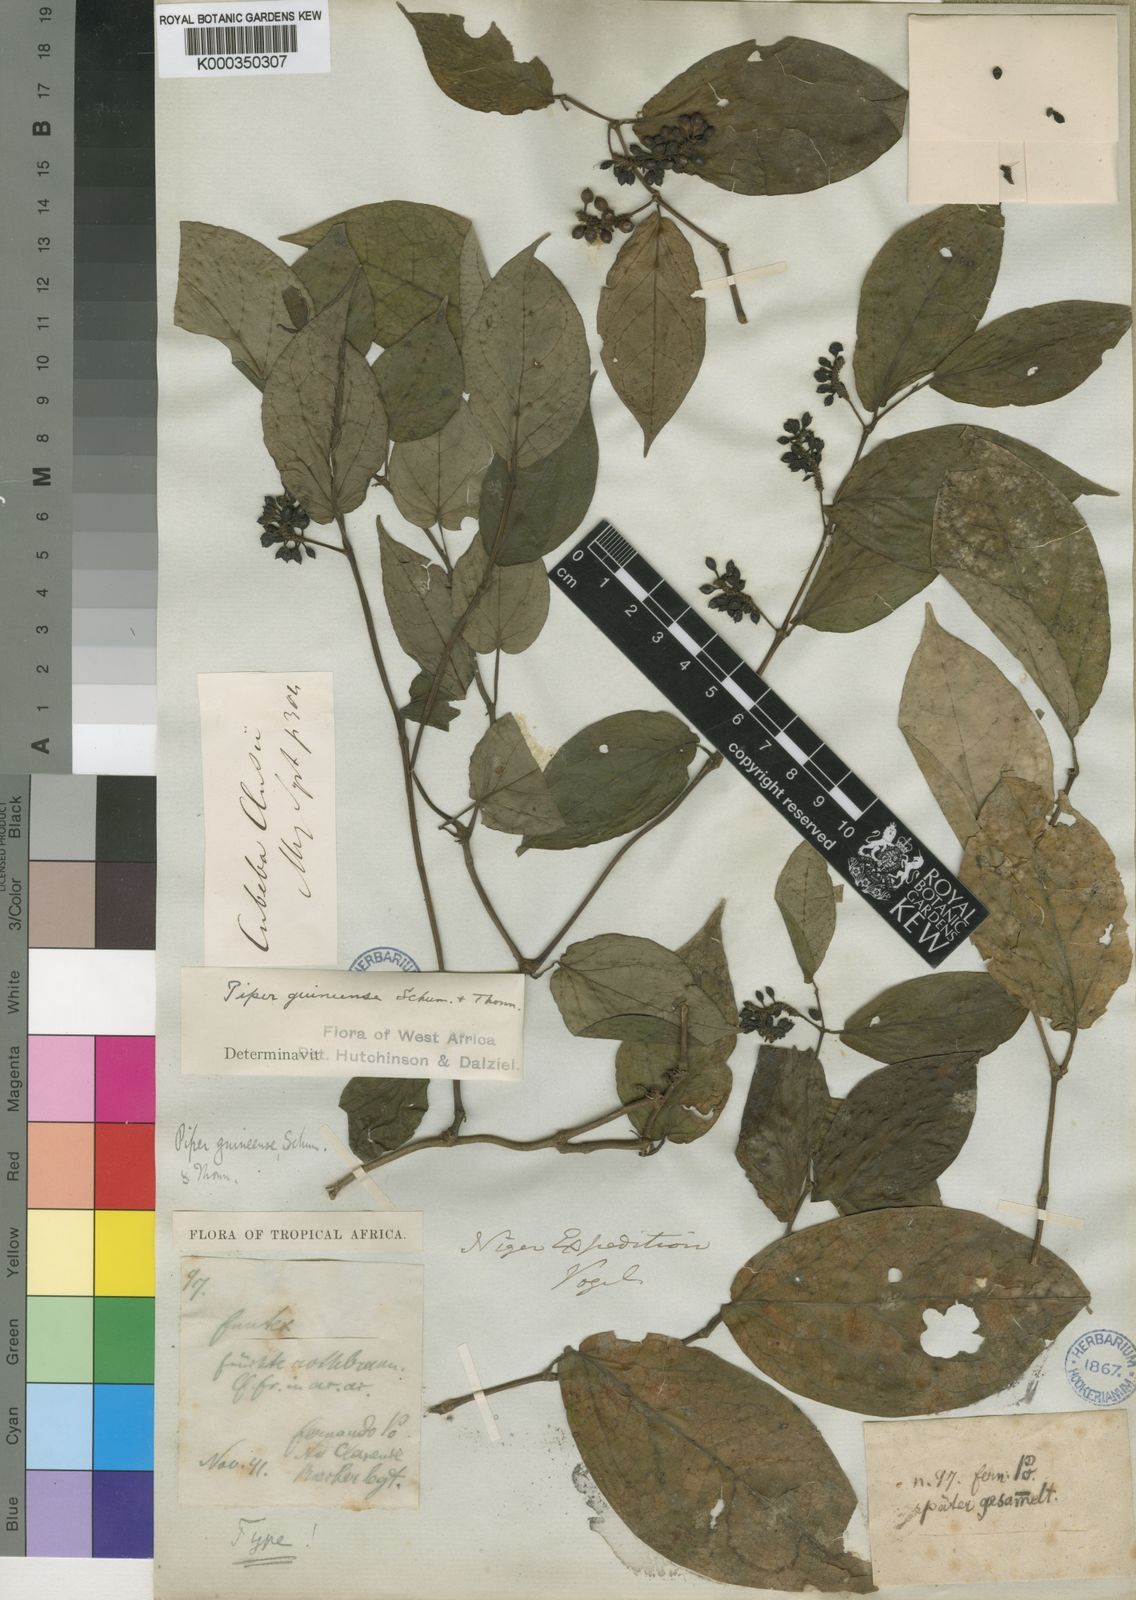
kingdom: Plantae
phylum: Tracheophyta
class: Magnoliopsida
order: Piperales
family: Piperaceae
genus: Piper
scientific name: Piper guineense
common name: Benin pepper
